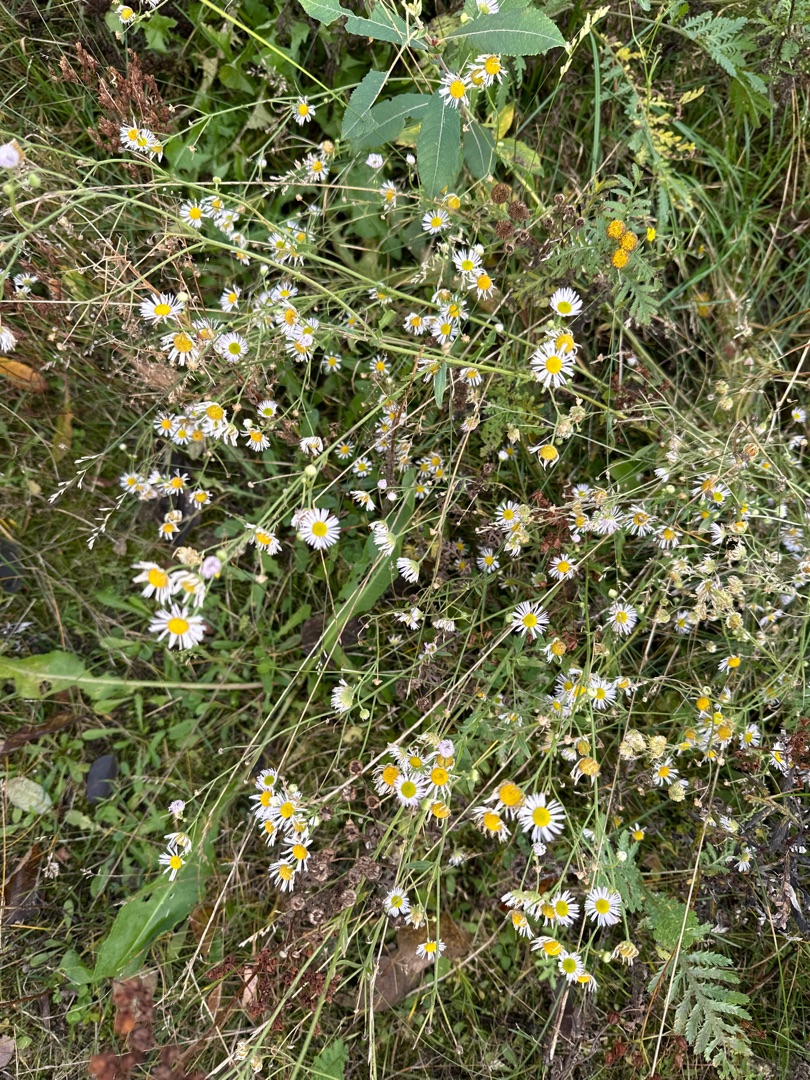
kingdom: Plantae
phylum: Tracheophyta
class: Magnoliopsida
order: Asterales
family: Asteraceae
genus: Erigeron
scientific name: Erigeron annuus
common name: Smalstråle
